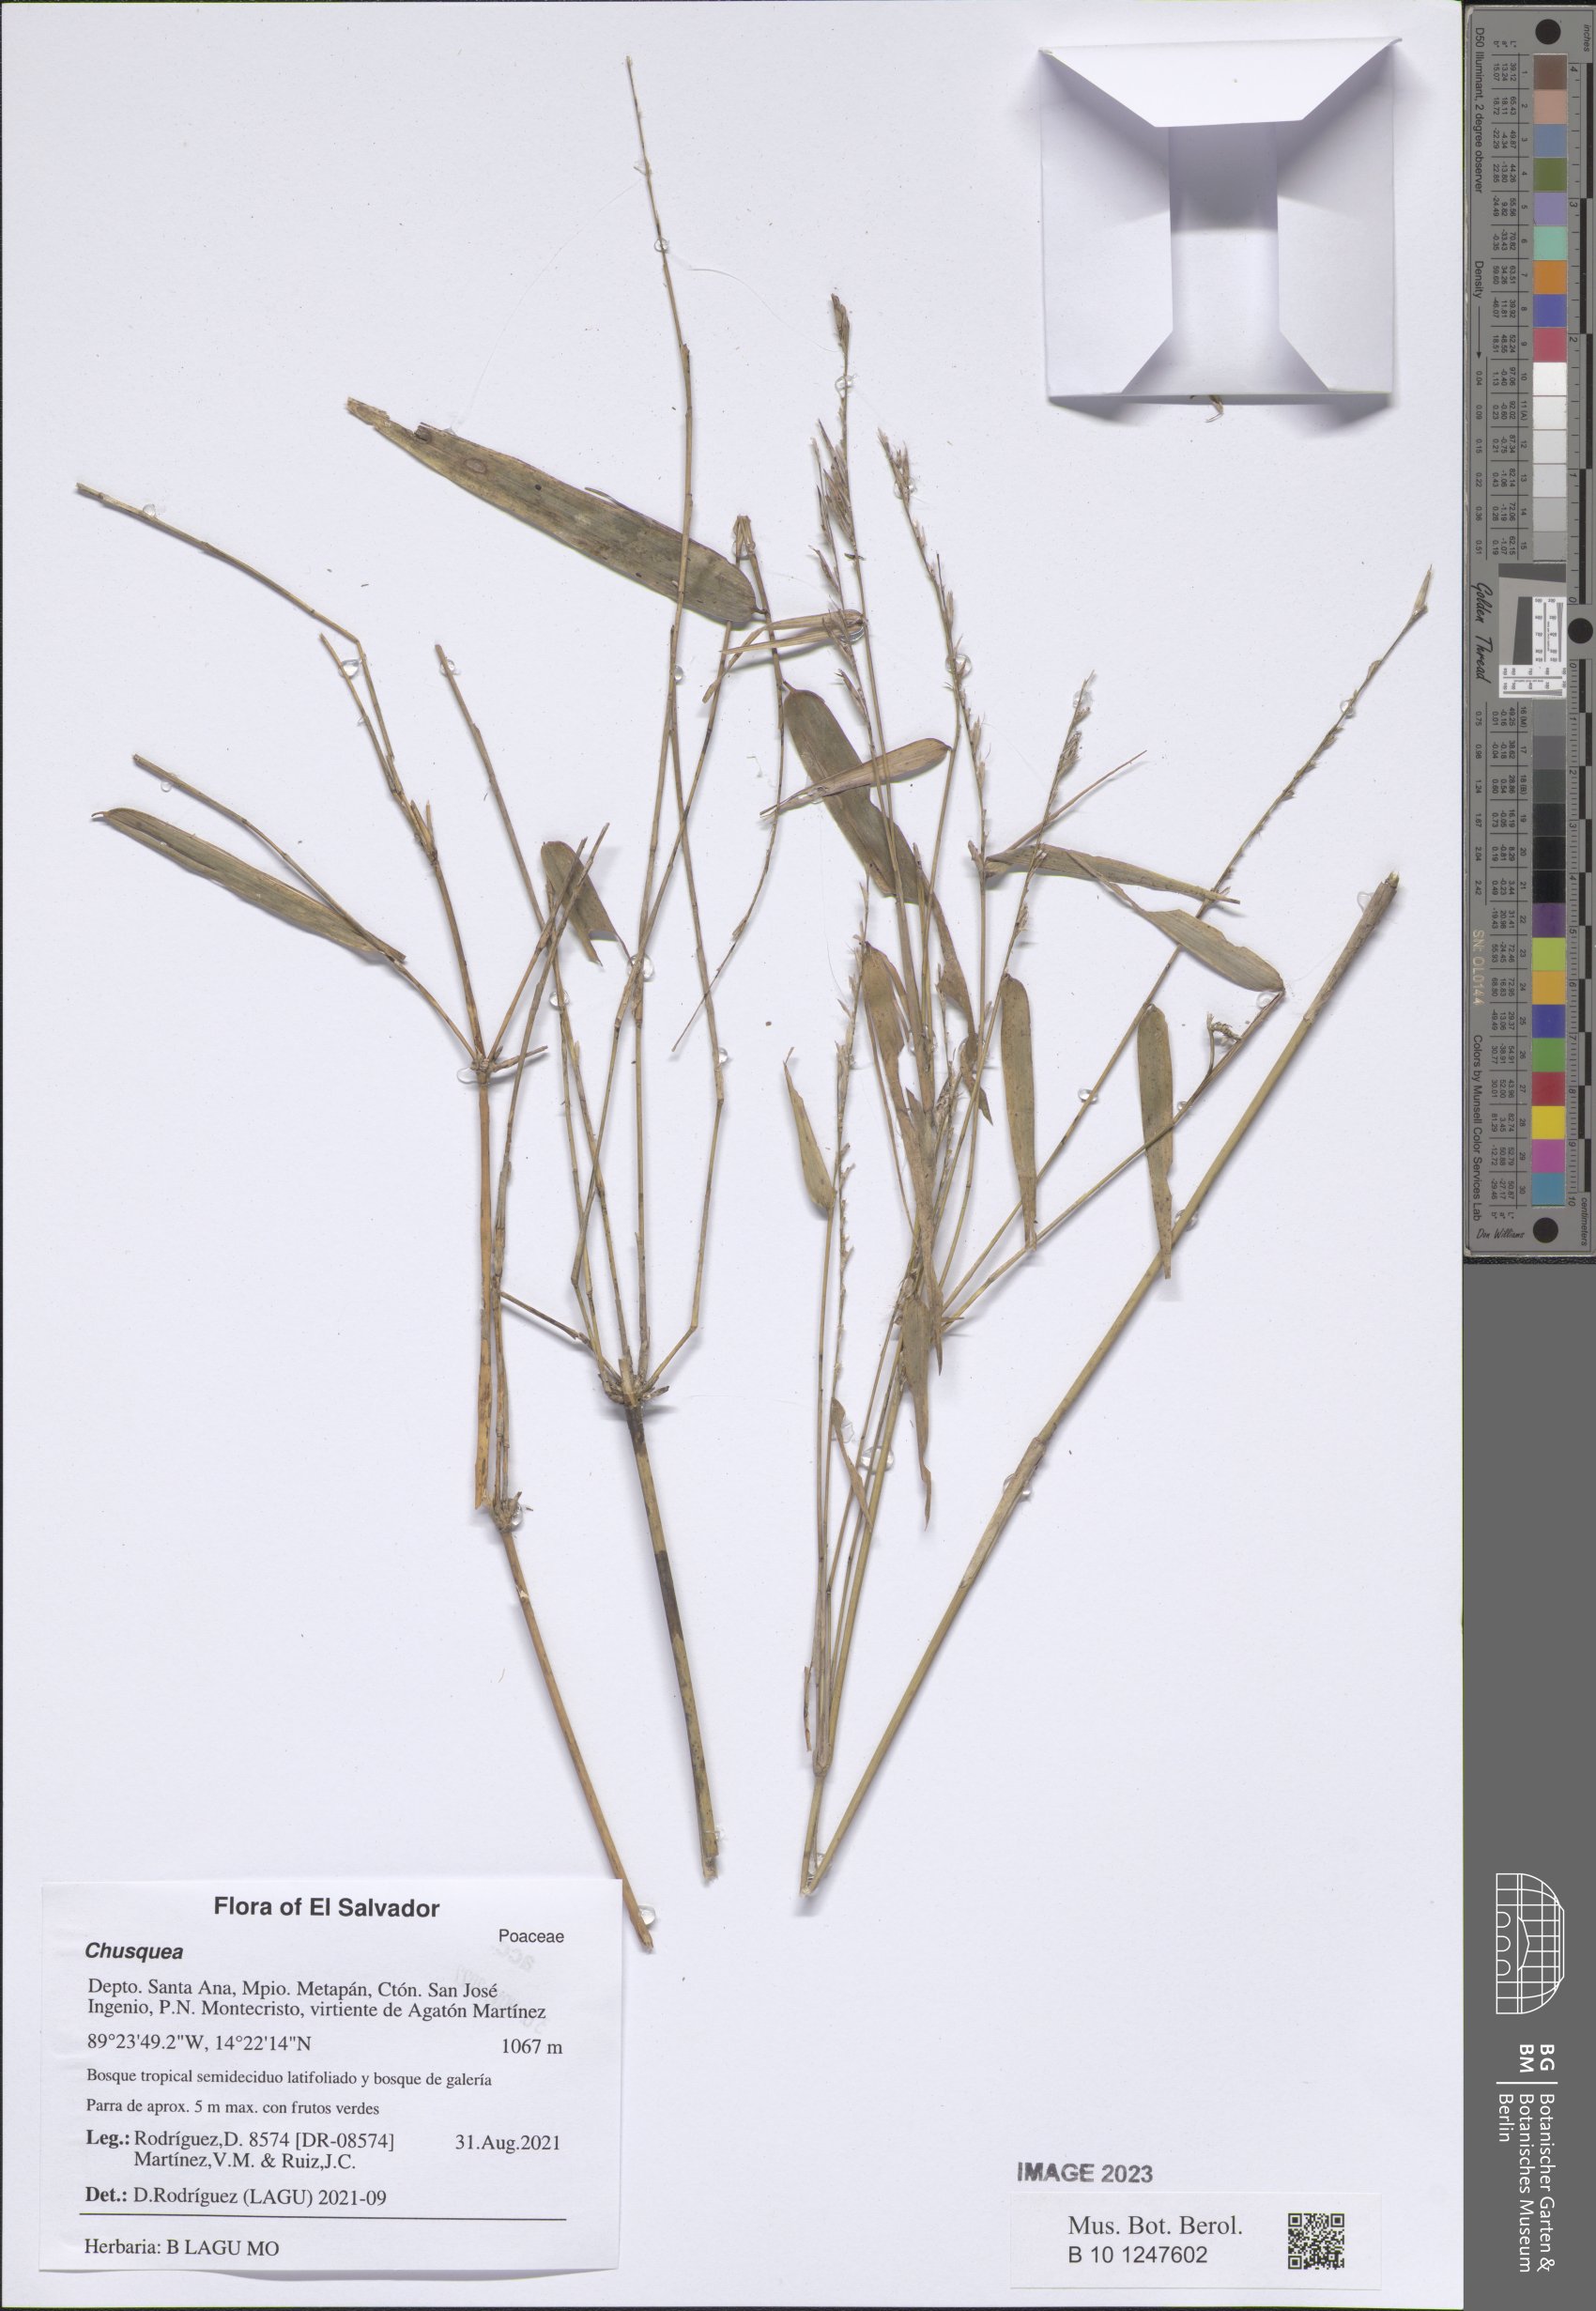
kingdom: Plantae
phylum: Tracheophyta
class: Liliopsida
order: Poales
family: Poaceae
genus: Chusquea
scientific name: Chusquea
